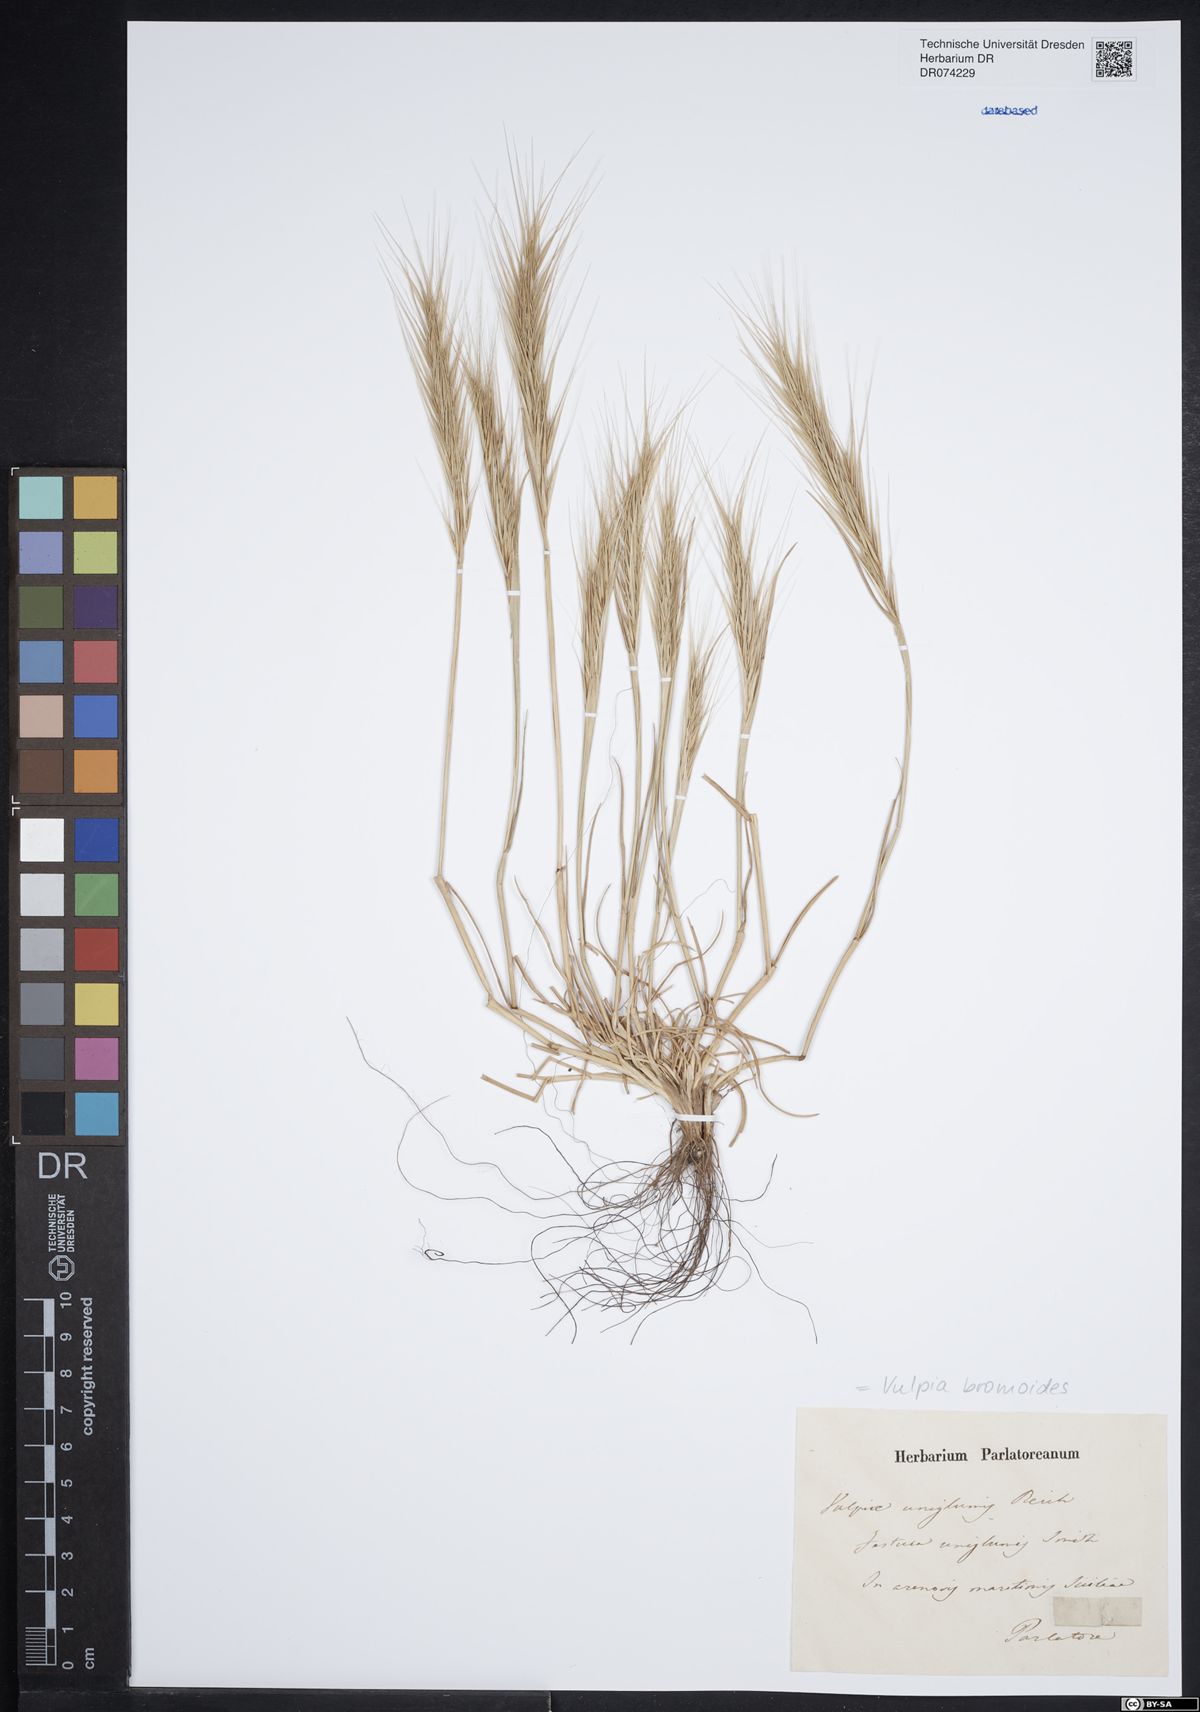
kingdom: Plantae
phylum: Tracheophyta
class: Liliopsida
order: Poales
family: Poaceae
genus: Festuca
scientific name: Festuca bromoides
